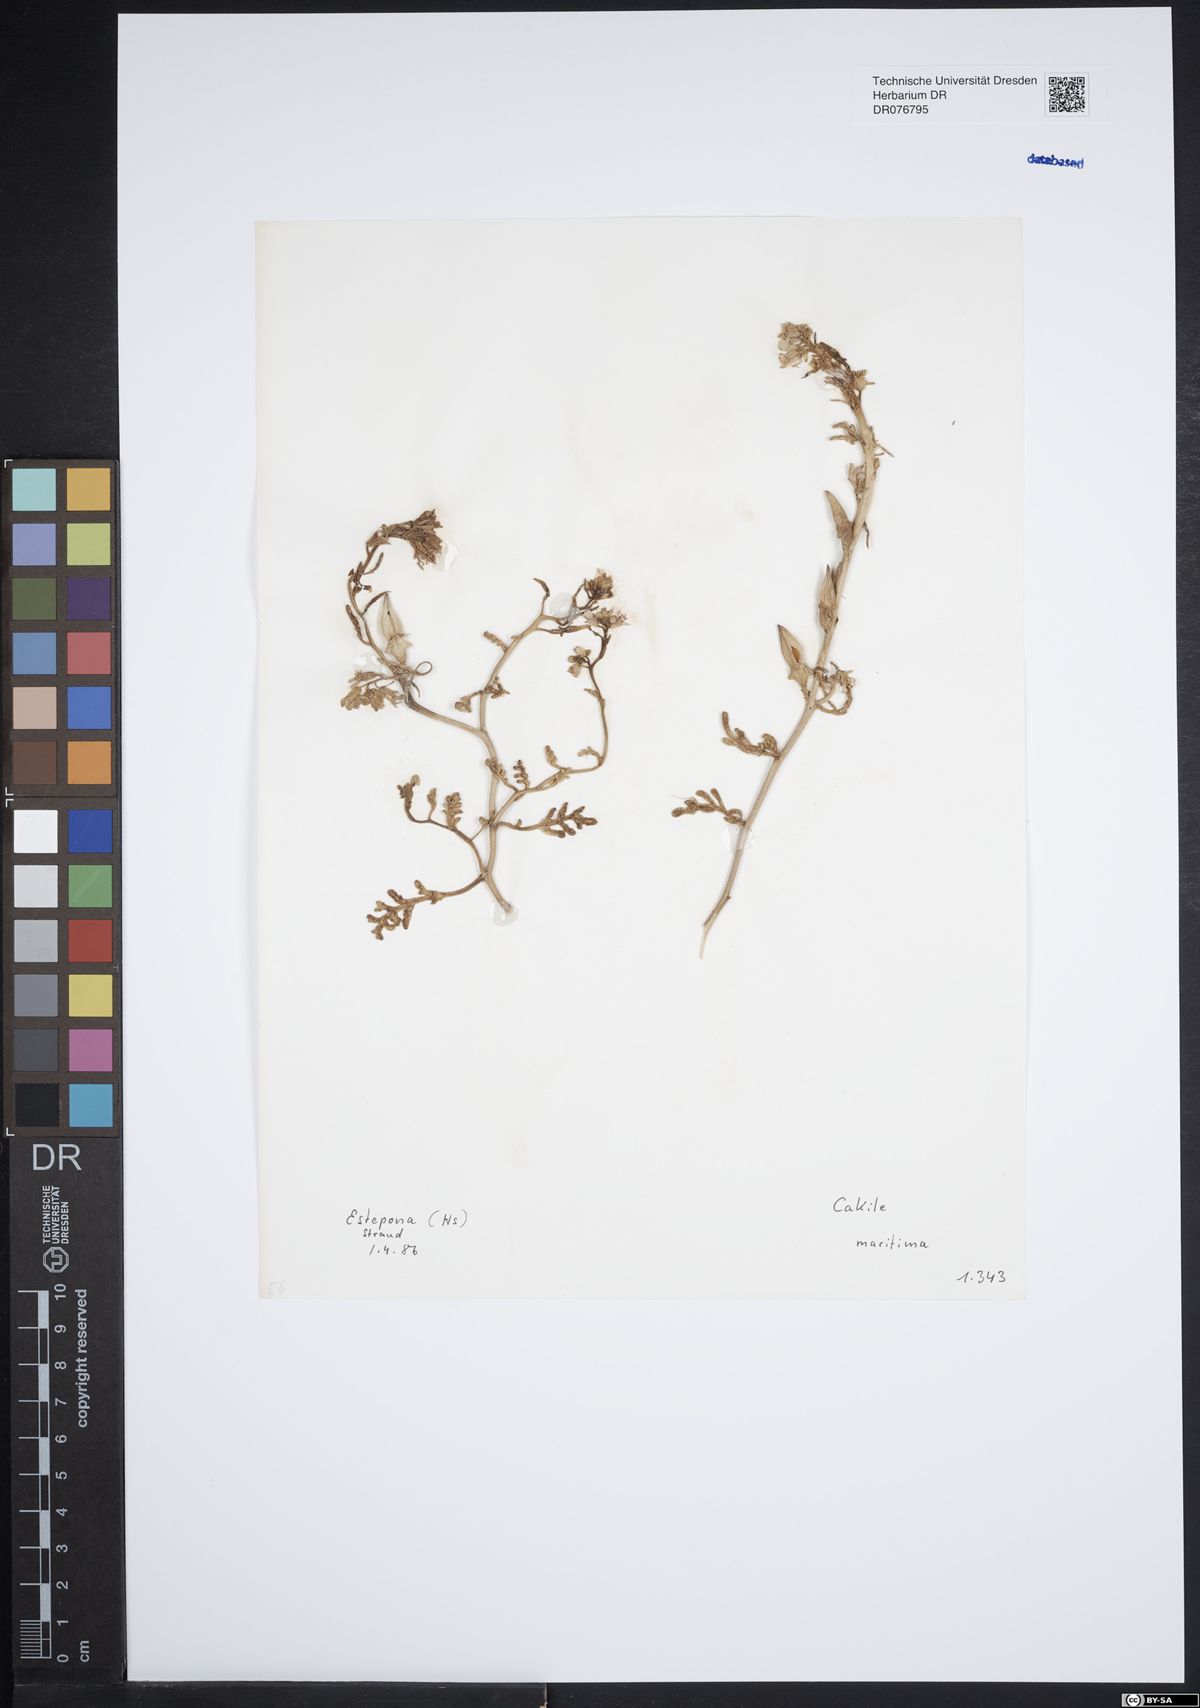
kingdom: Plantae
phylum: Tracheophyta
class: Magnoliopsida
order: Brassicales
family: Brassicaceae
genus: Cakile
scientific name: Cakile maritima
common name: Sea rocket
